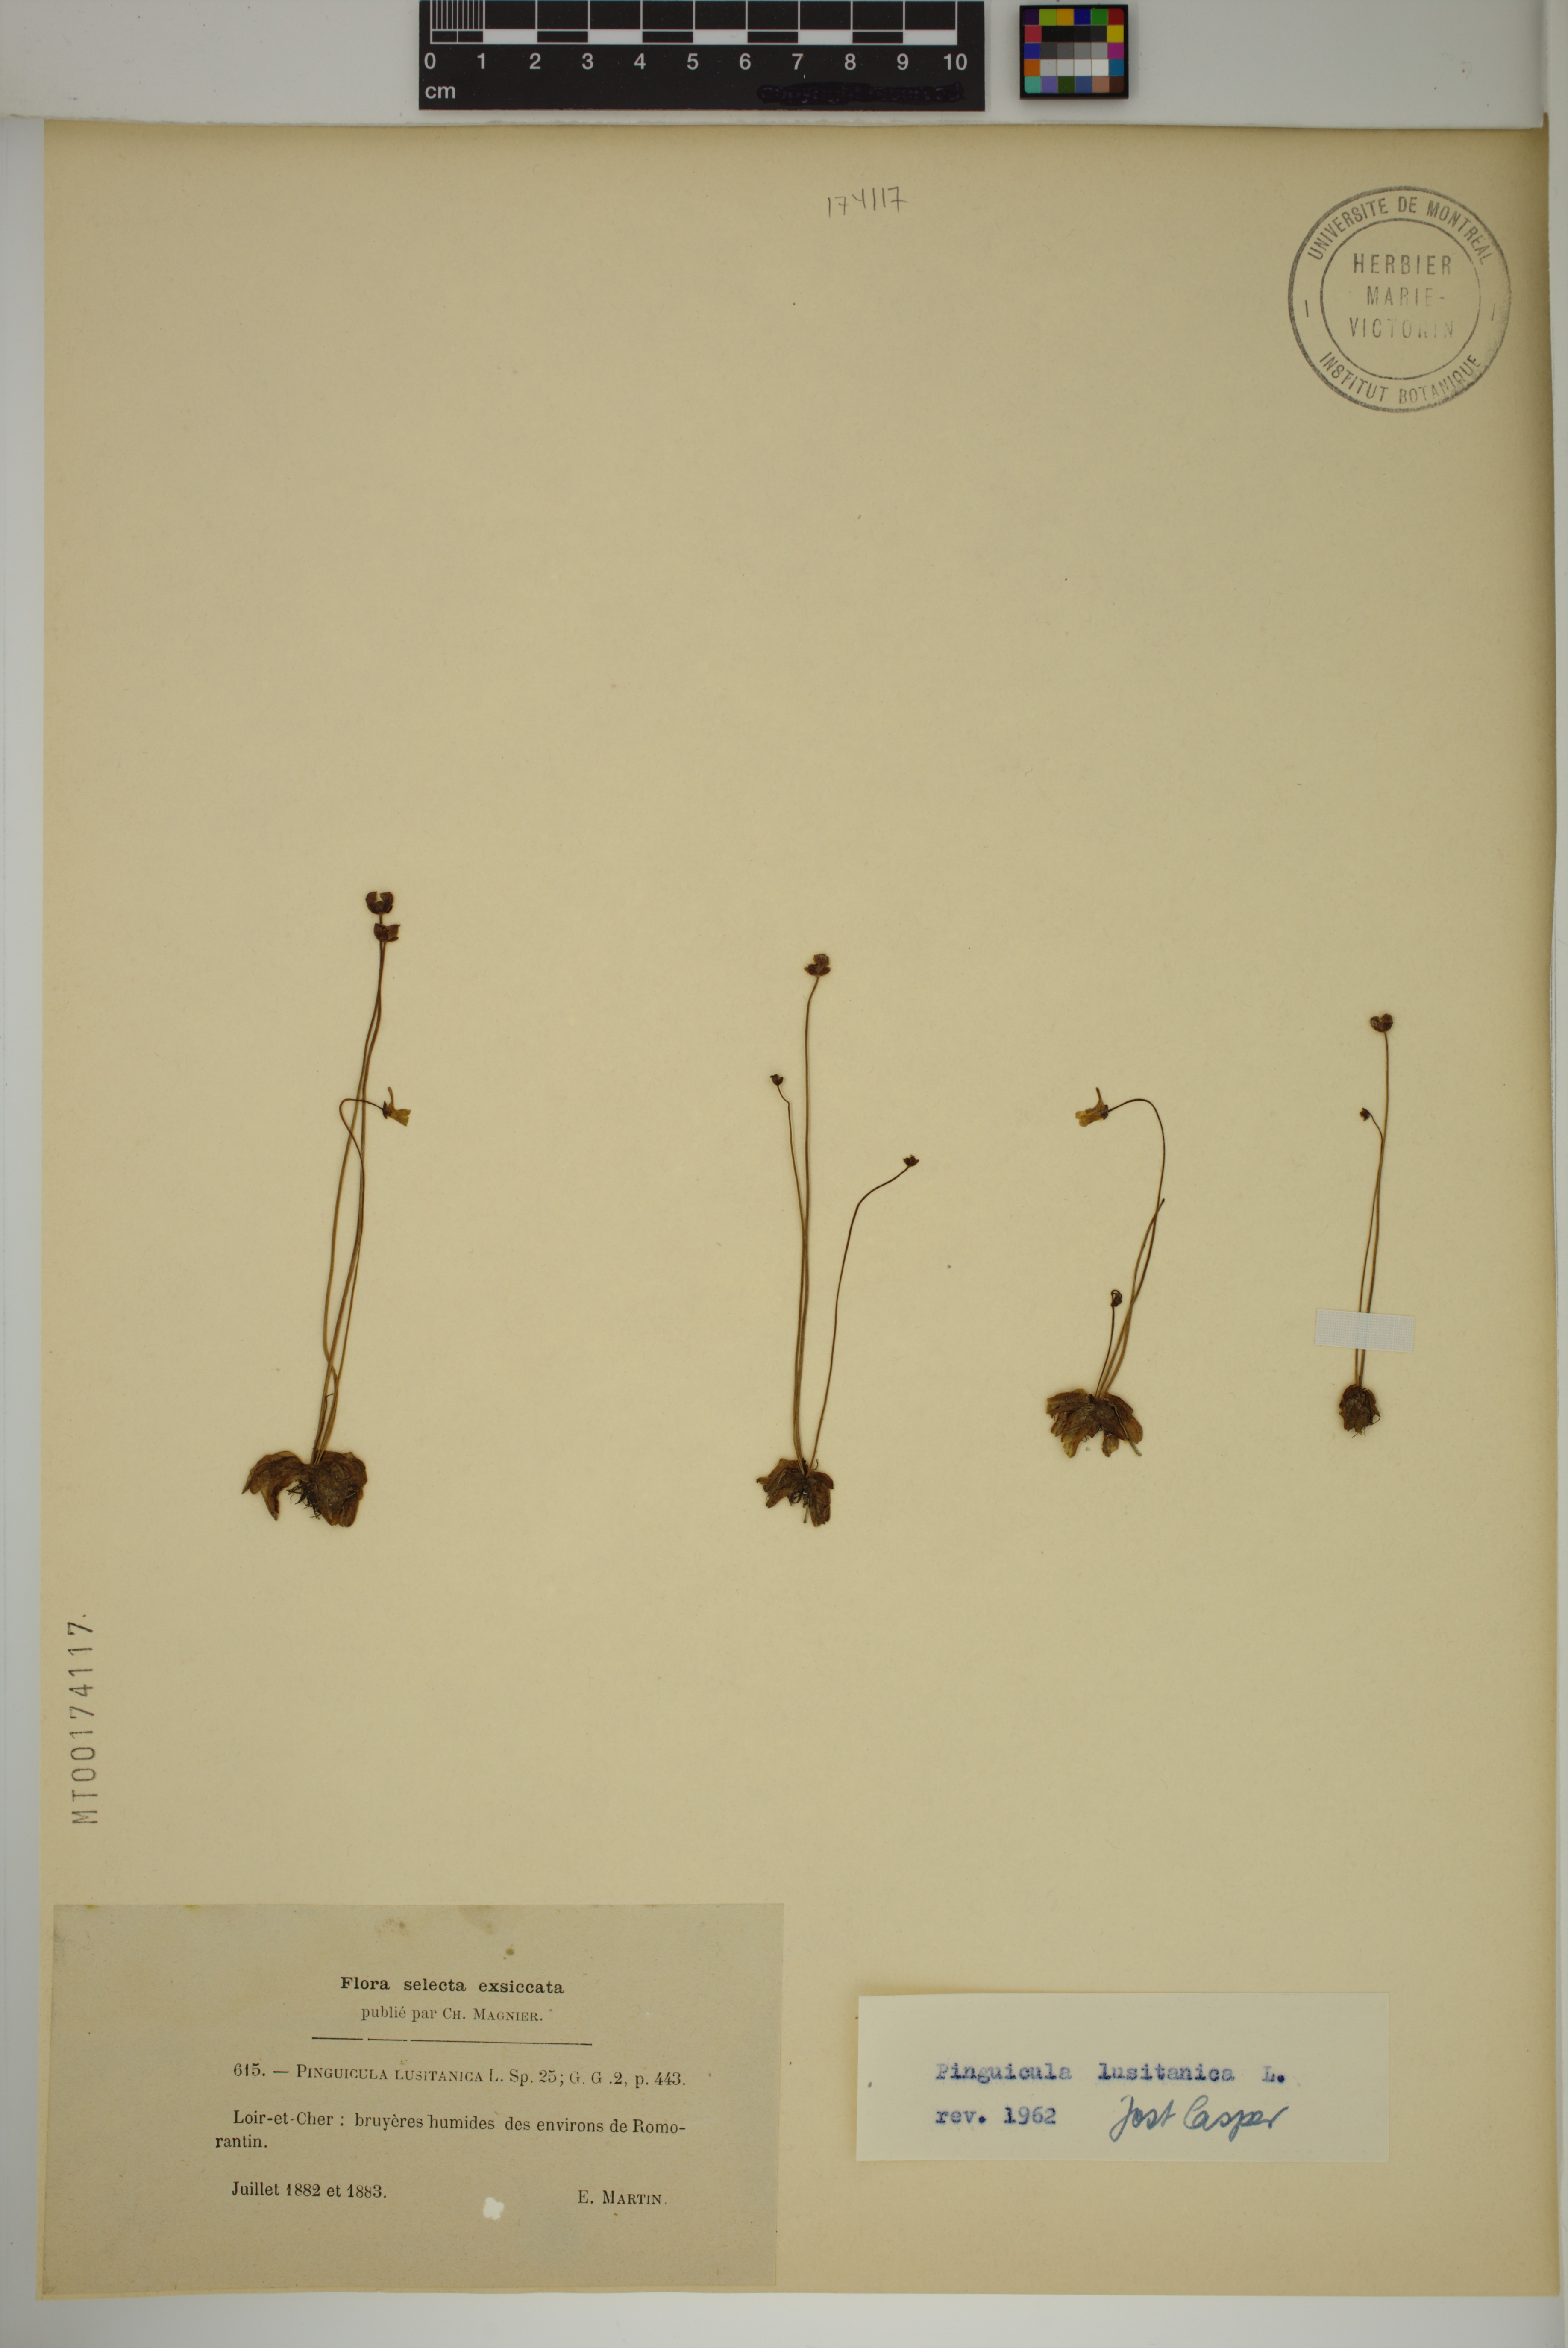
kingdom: Plantae
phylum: Tracheophyta
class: Magnoliopsida
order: Lamiales
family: Lentibulariaceae
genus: Pinguicula
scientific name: Pinguicula lusitanica
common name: Pale butterwort
